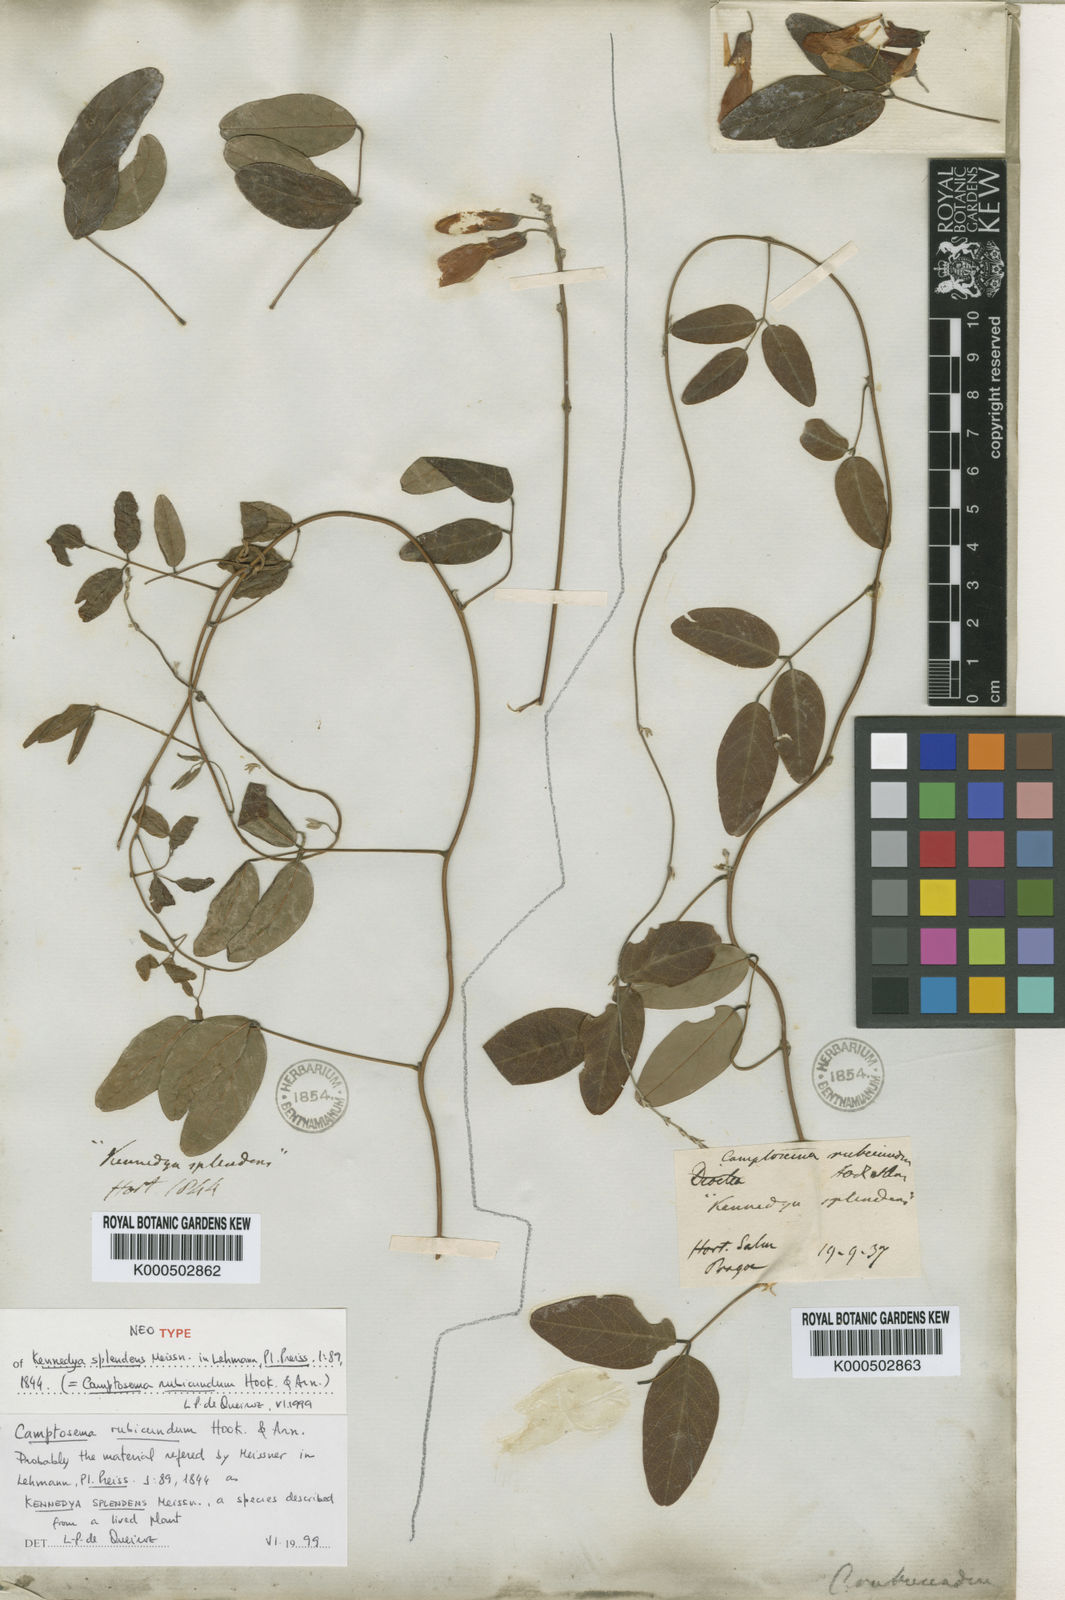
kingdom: Plantae
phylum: Tracheophyta
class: Magnoliopsida
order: Fabales
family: Fabaceae
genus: Camptosema
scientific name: Camptosema rubicundum
